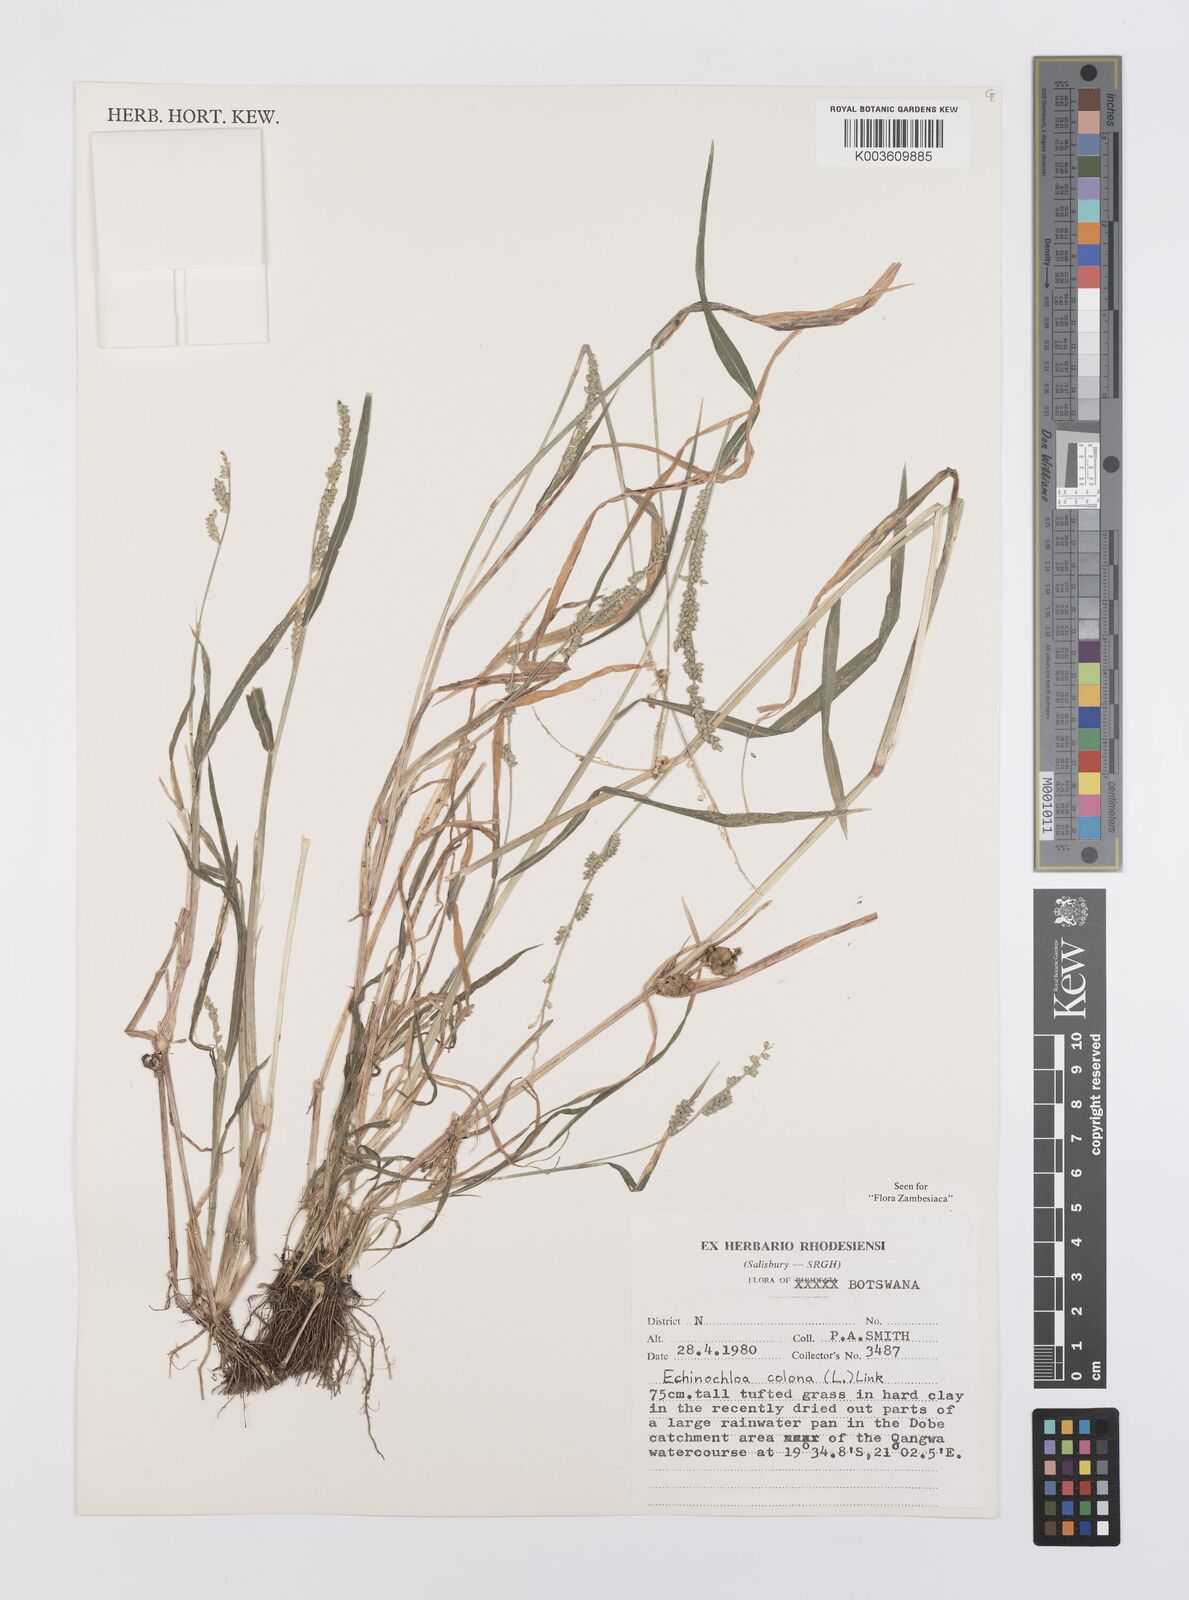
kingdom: Plantae
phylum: Tracheophyta
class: Liliopsida
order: Poales
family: Poaceae
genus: Echinochloa
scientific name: Echinochloa colonum
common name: Jungle rice
